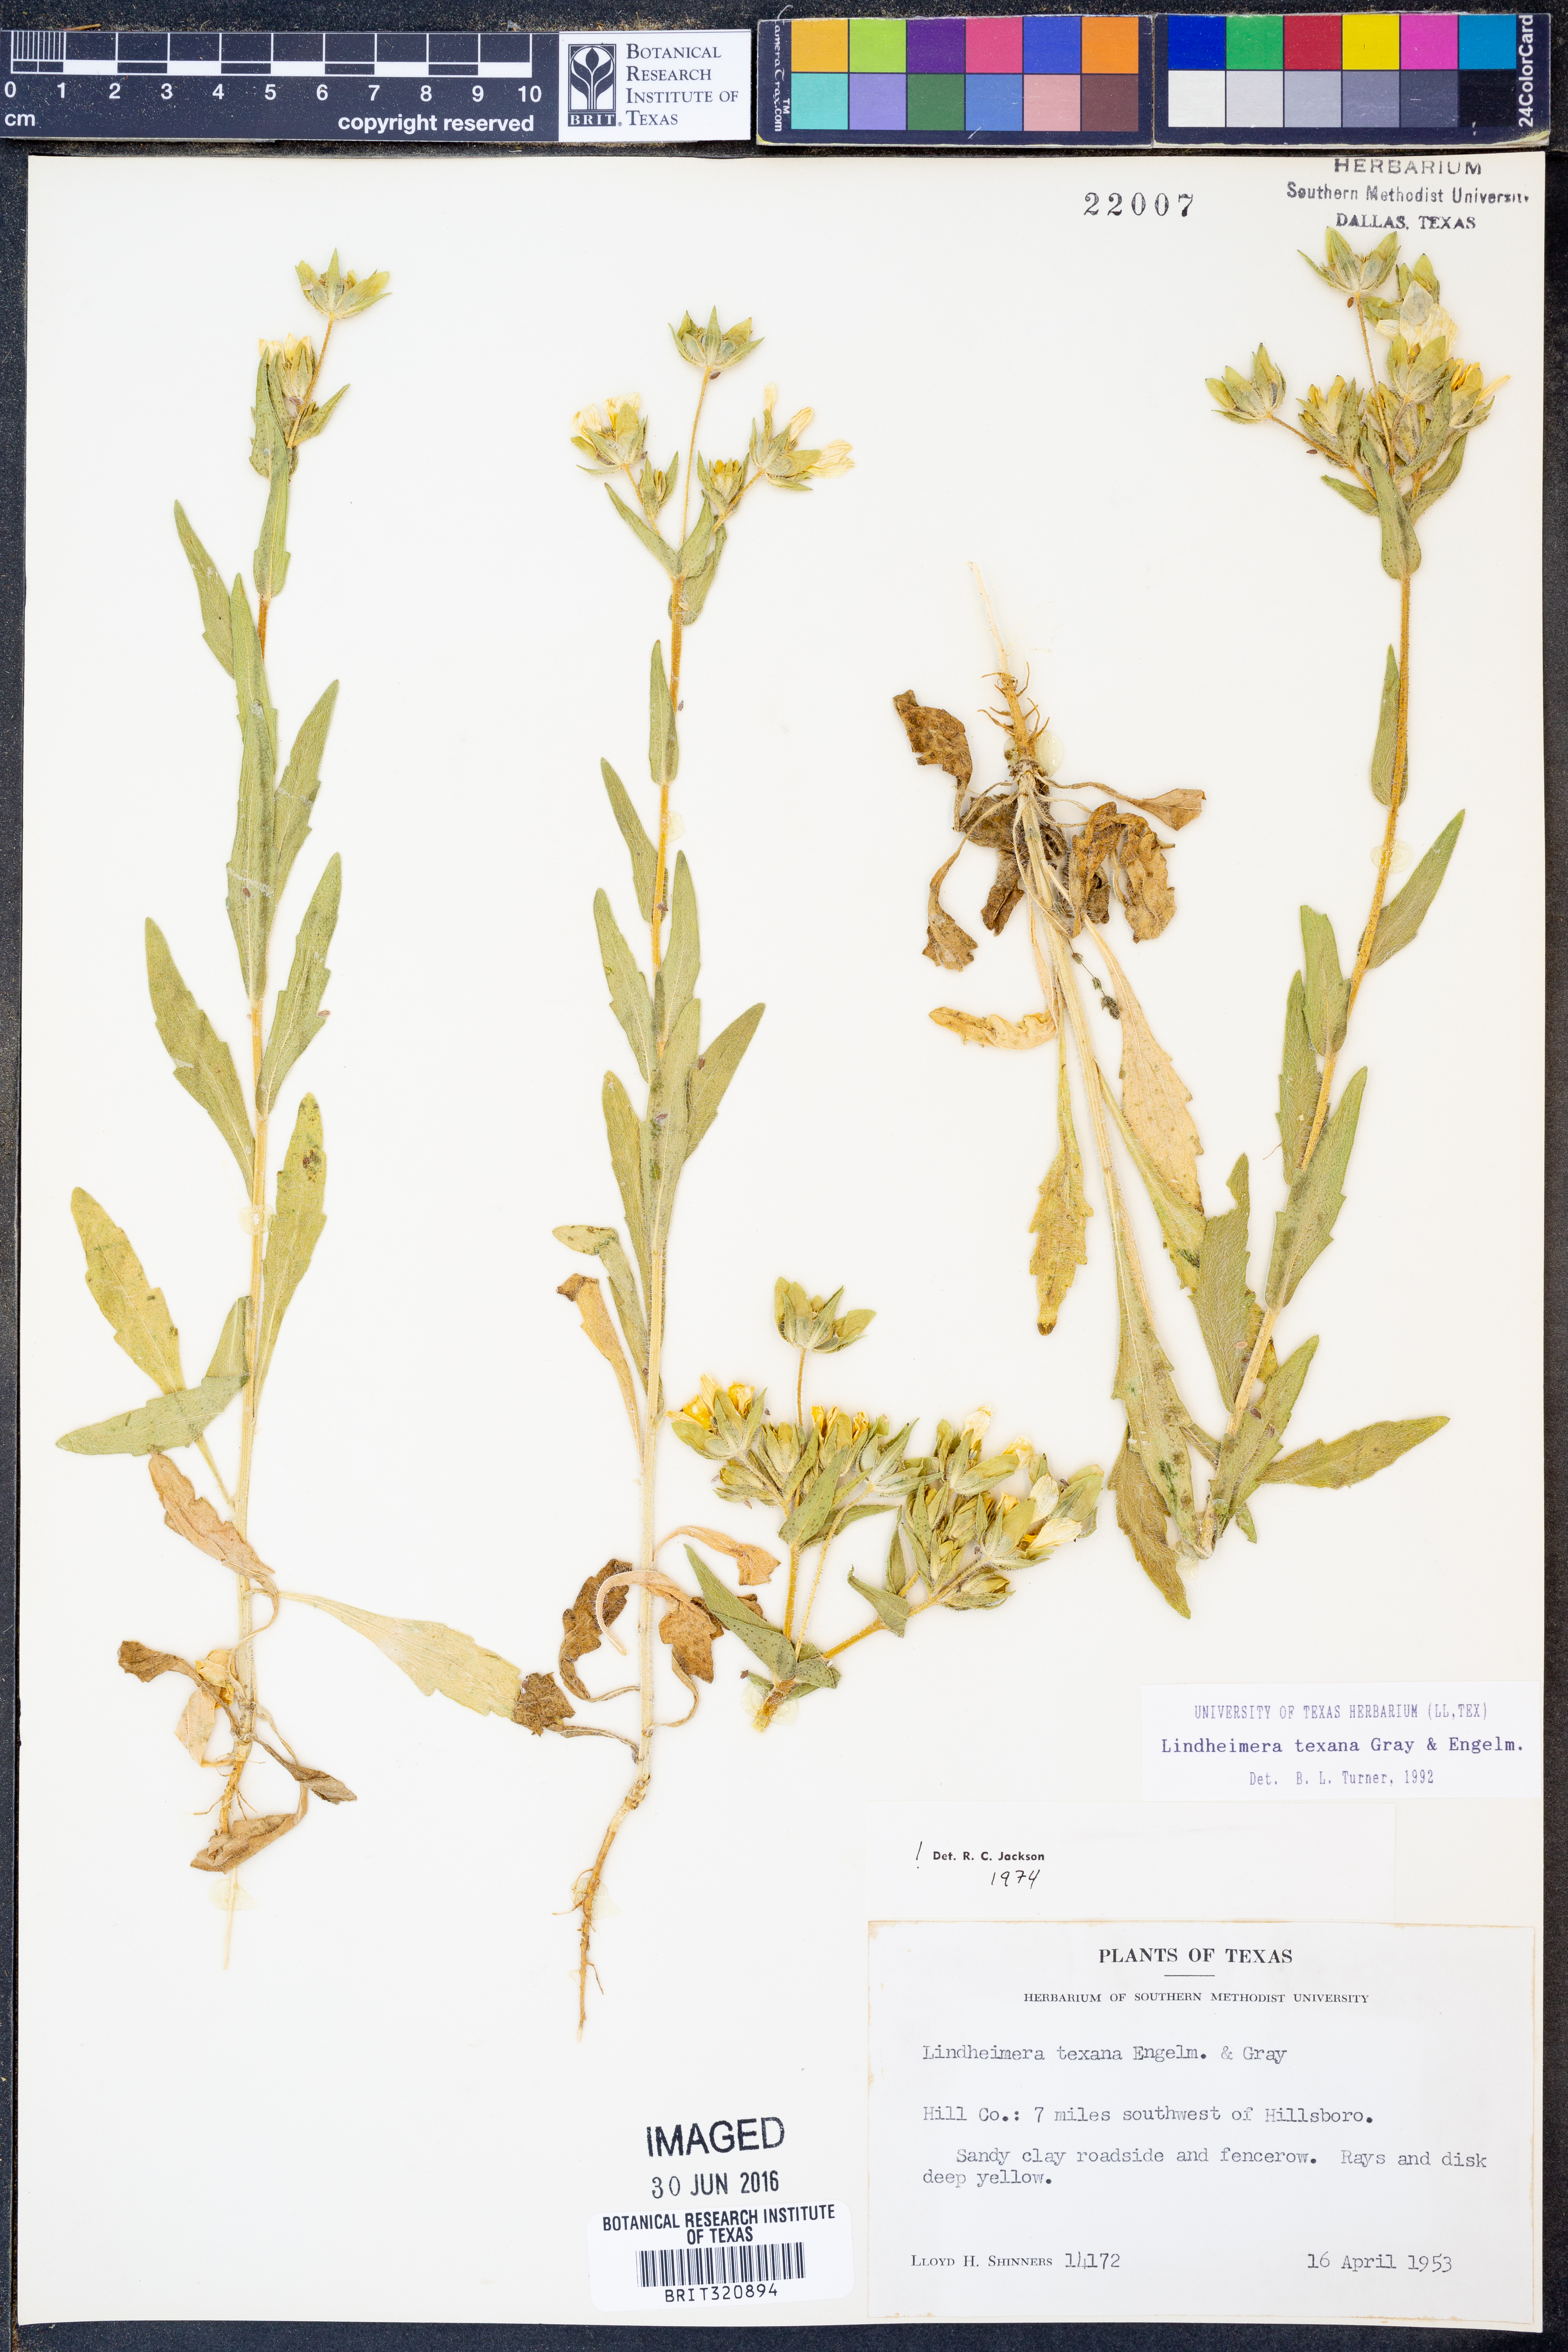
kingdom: Plantae
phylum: Tracheophyta
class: Magnoliopsida
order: Asterales
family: Asteraceae
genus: Lindheimera
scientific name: Lindheimera texana
